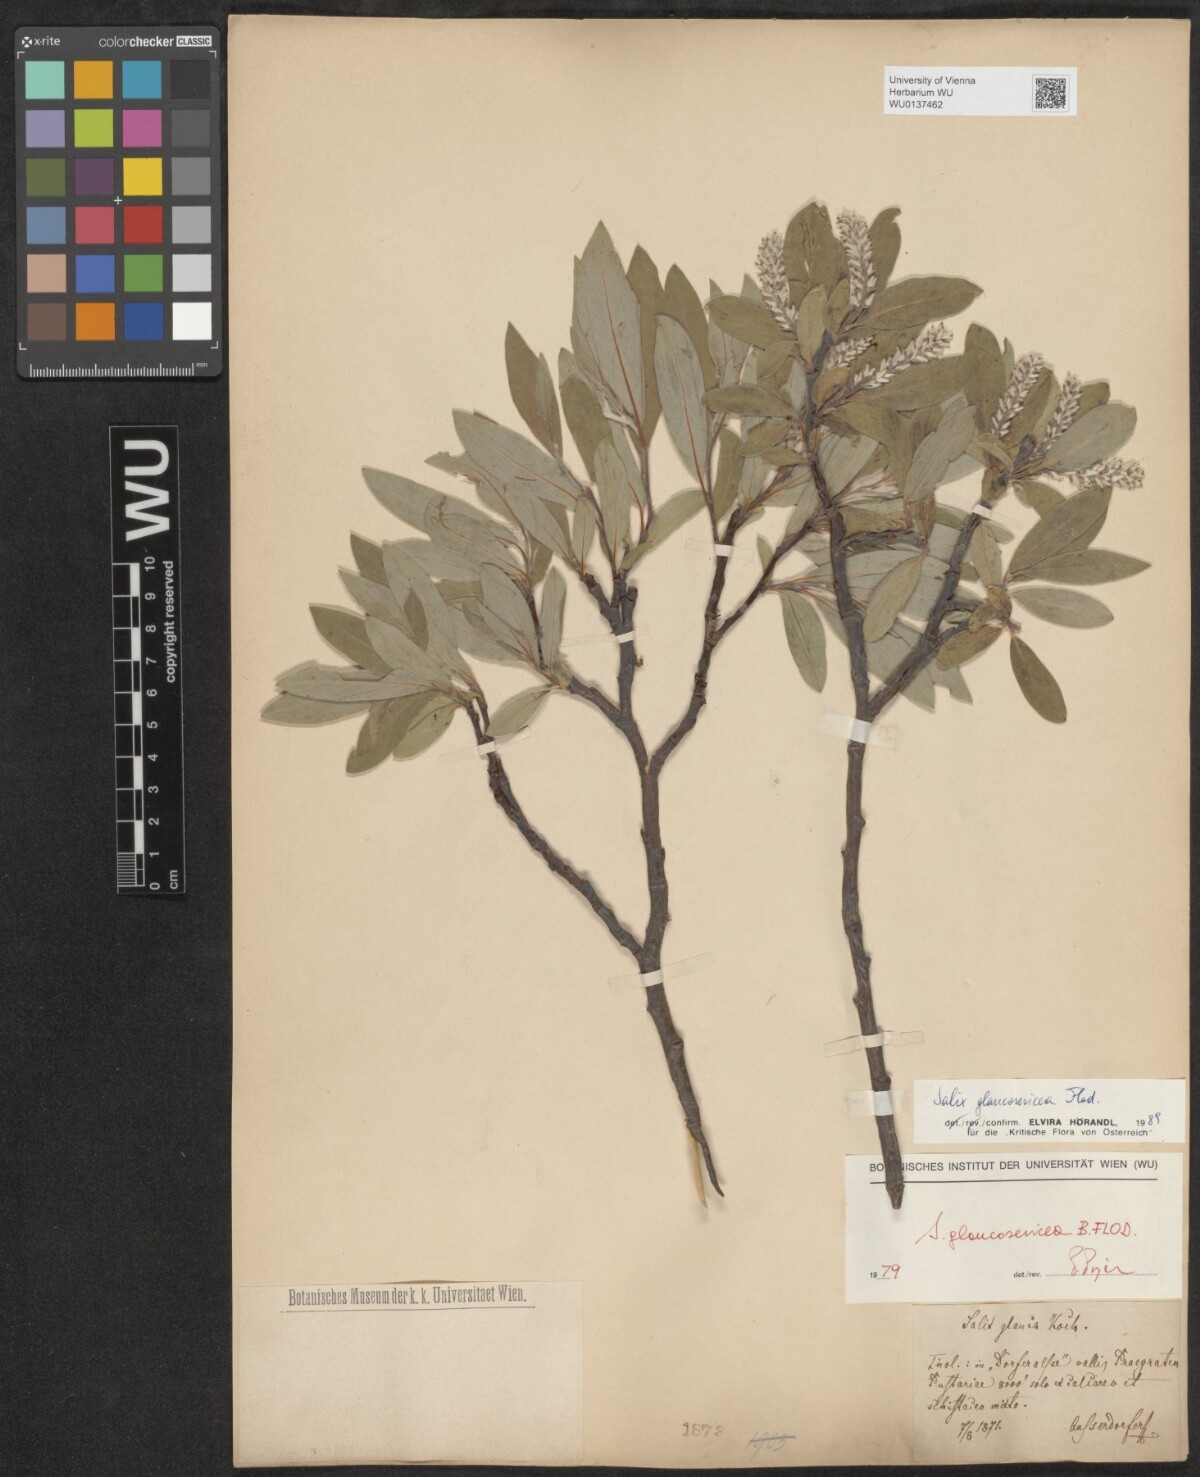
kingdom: Plantae
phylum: Tracheophyta
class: Magnoliopsida
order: Malpighiales
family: Salicaceae
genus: Salix
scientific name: Salix glaucosericea
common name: Alpine gray willow
